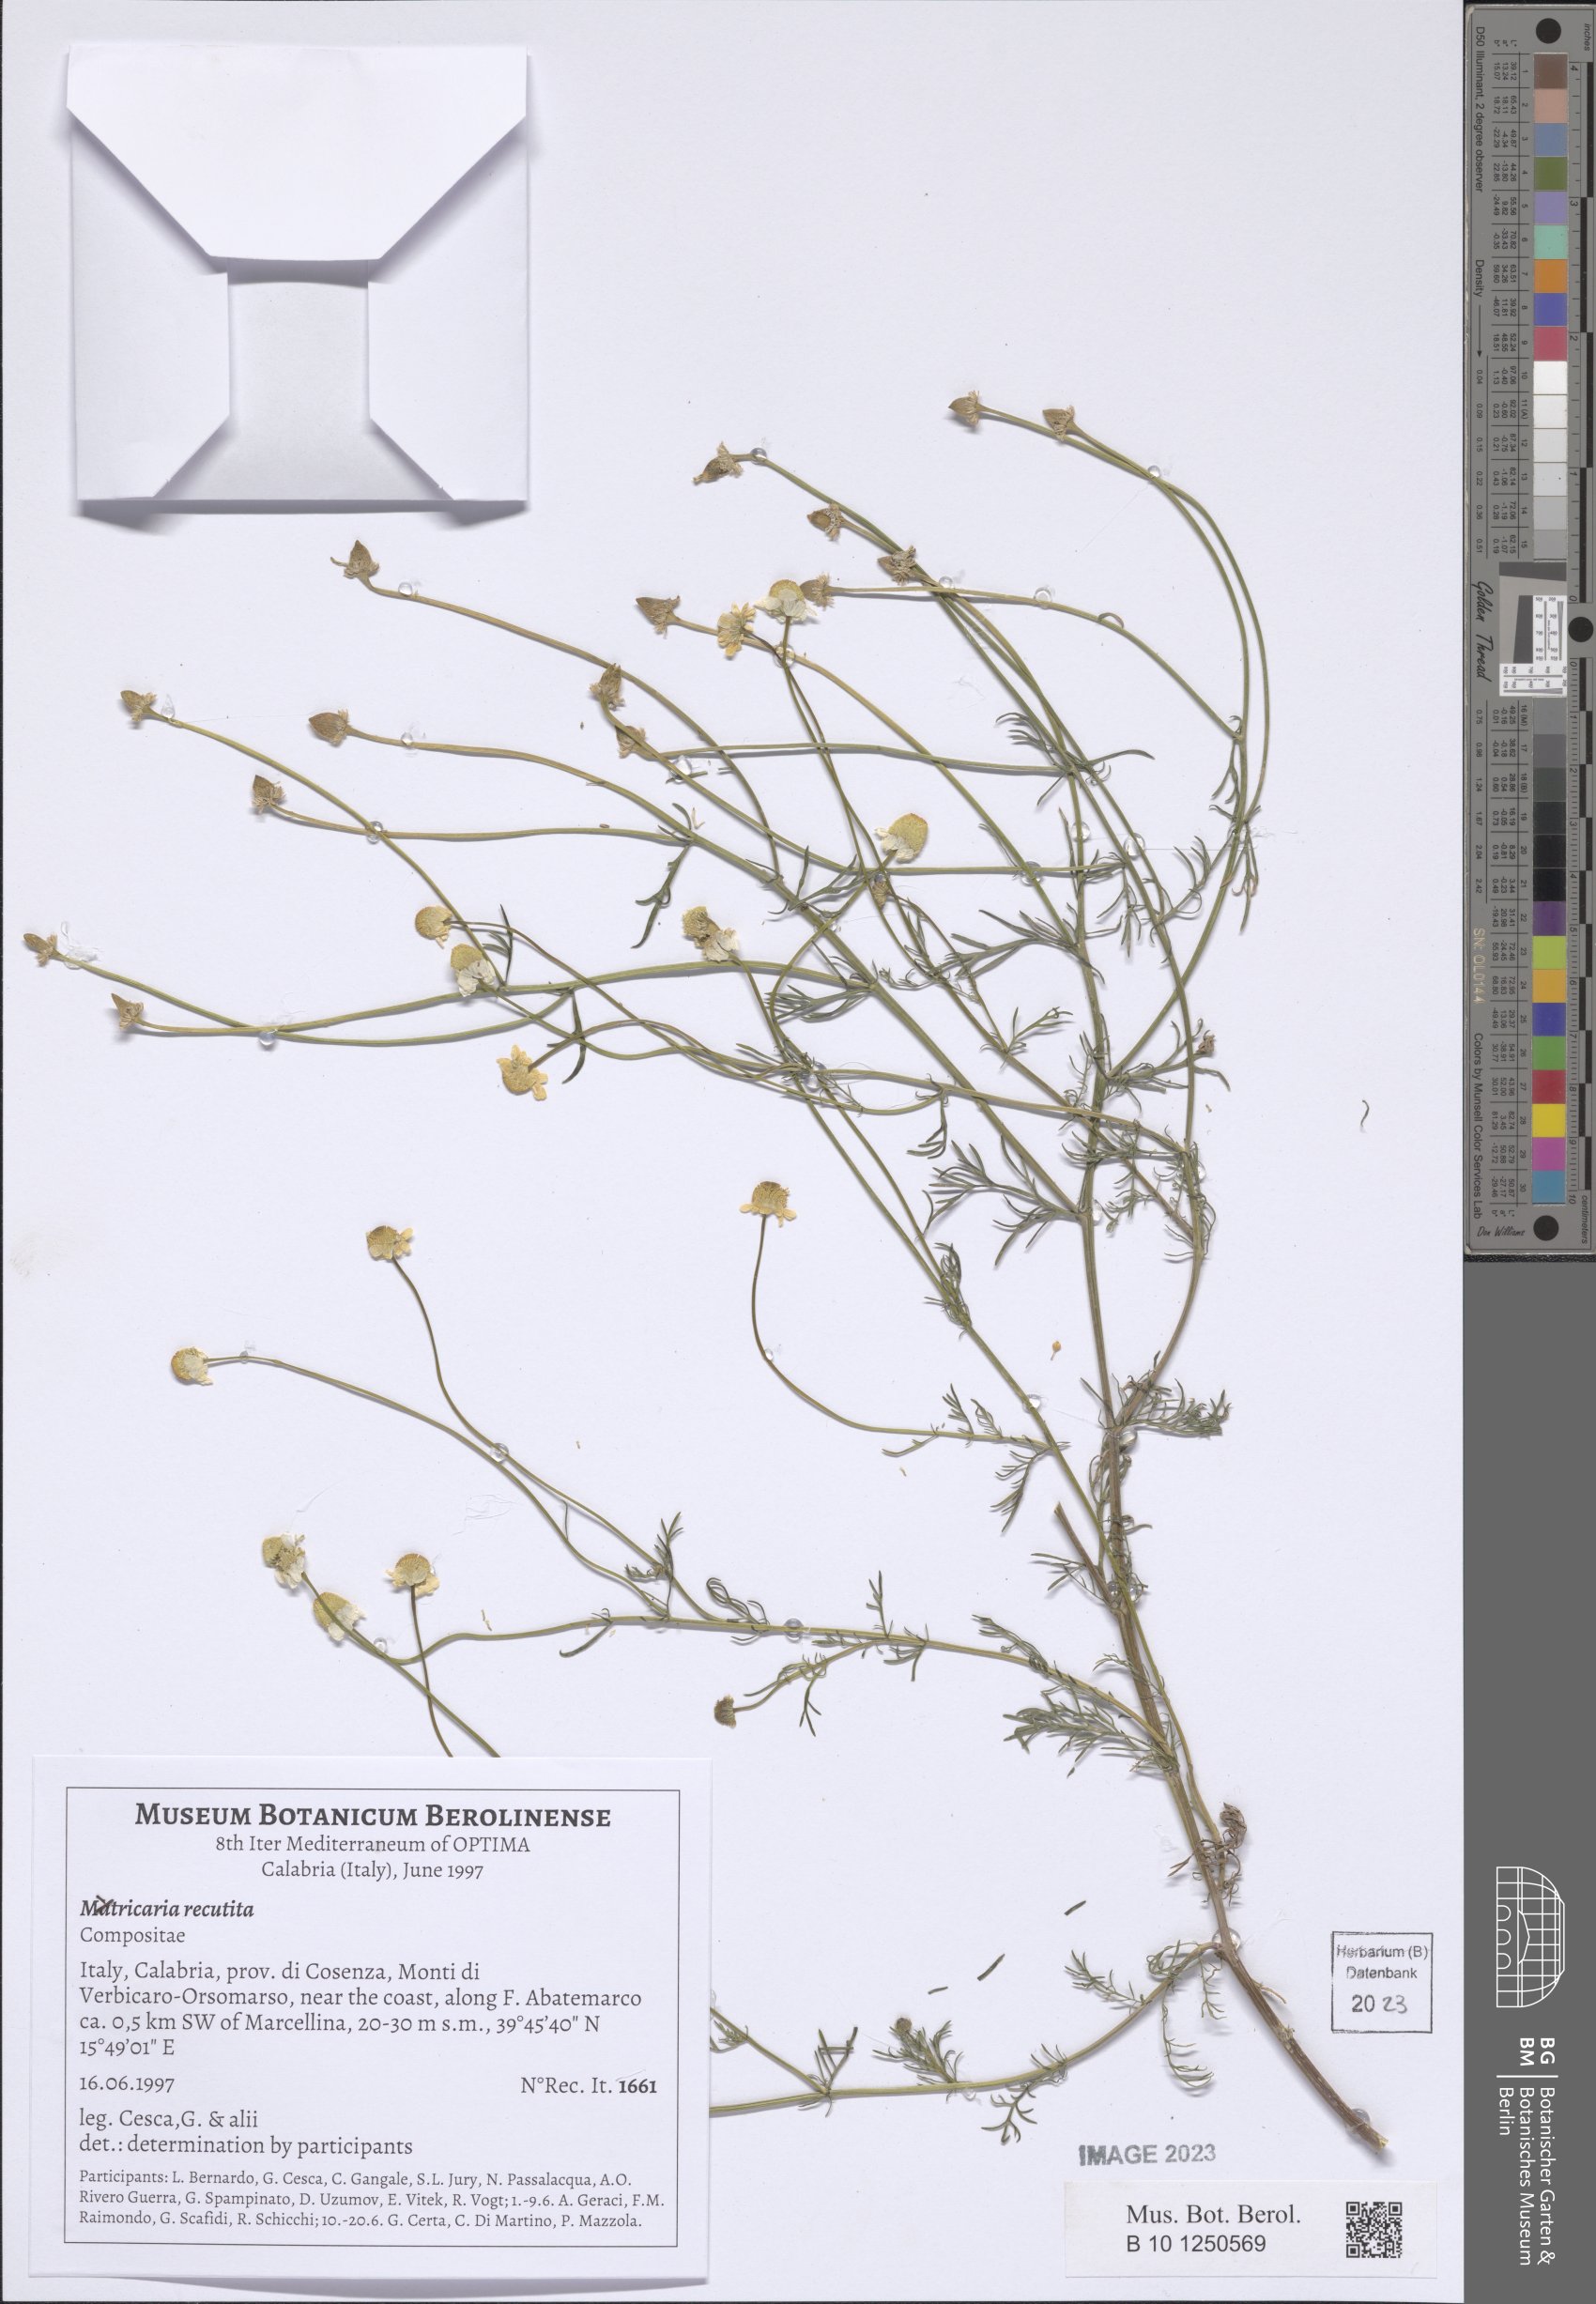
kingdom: Plantae
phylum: Tracheophyta
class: Magnoliopsida
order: Asterales
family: Asteraceae
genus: Matricaria
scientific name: Matricaria chamomilla
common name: Scented mayweed
